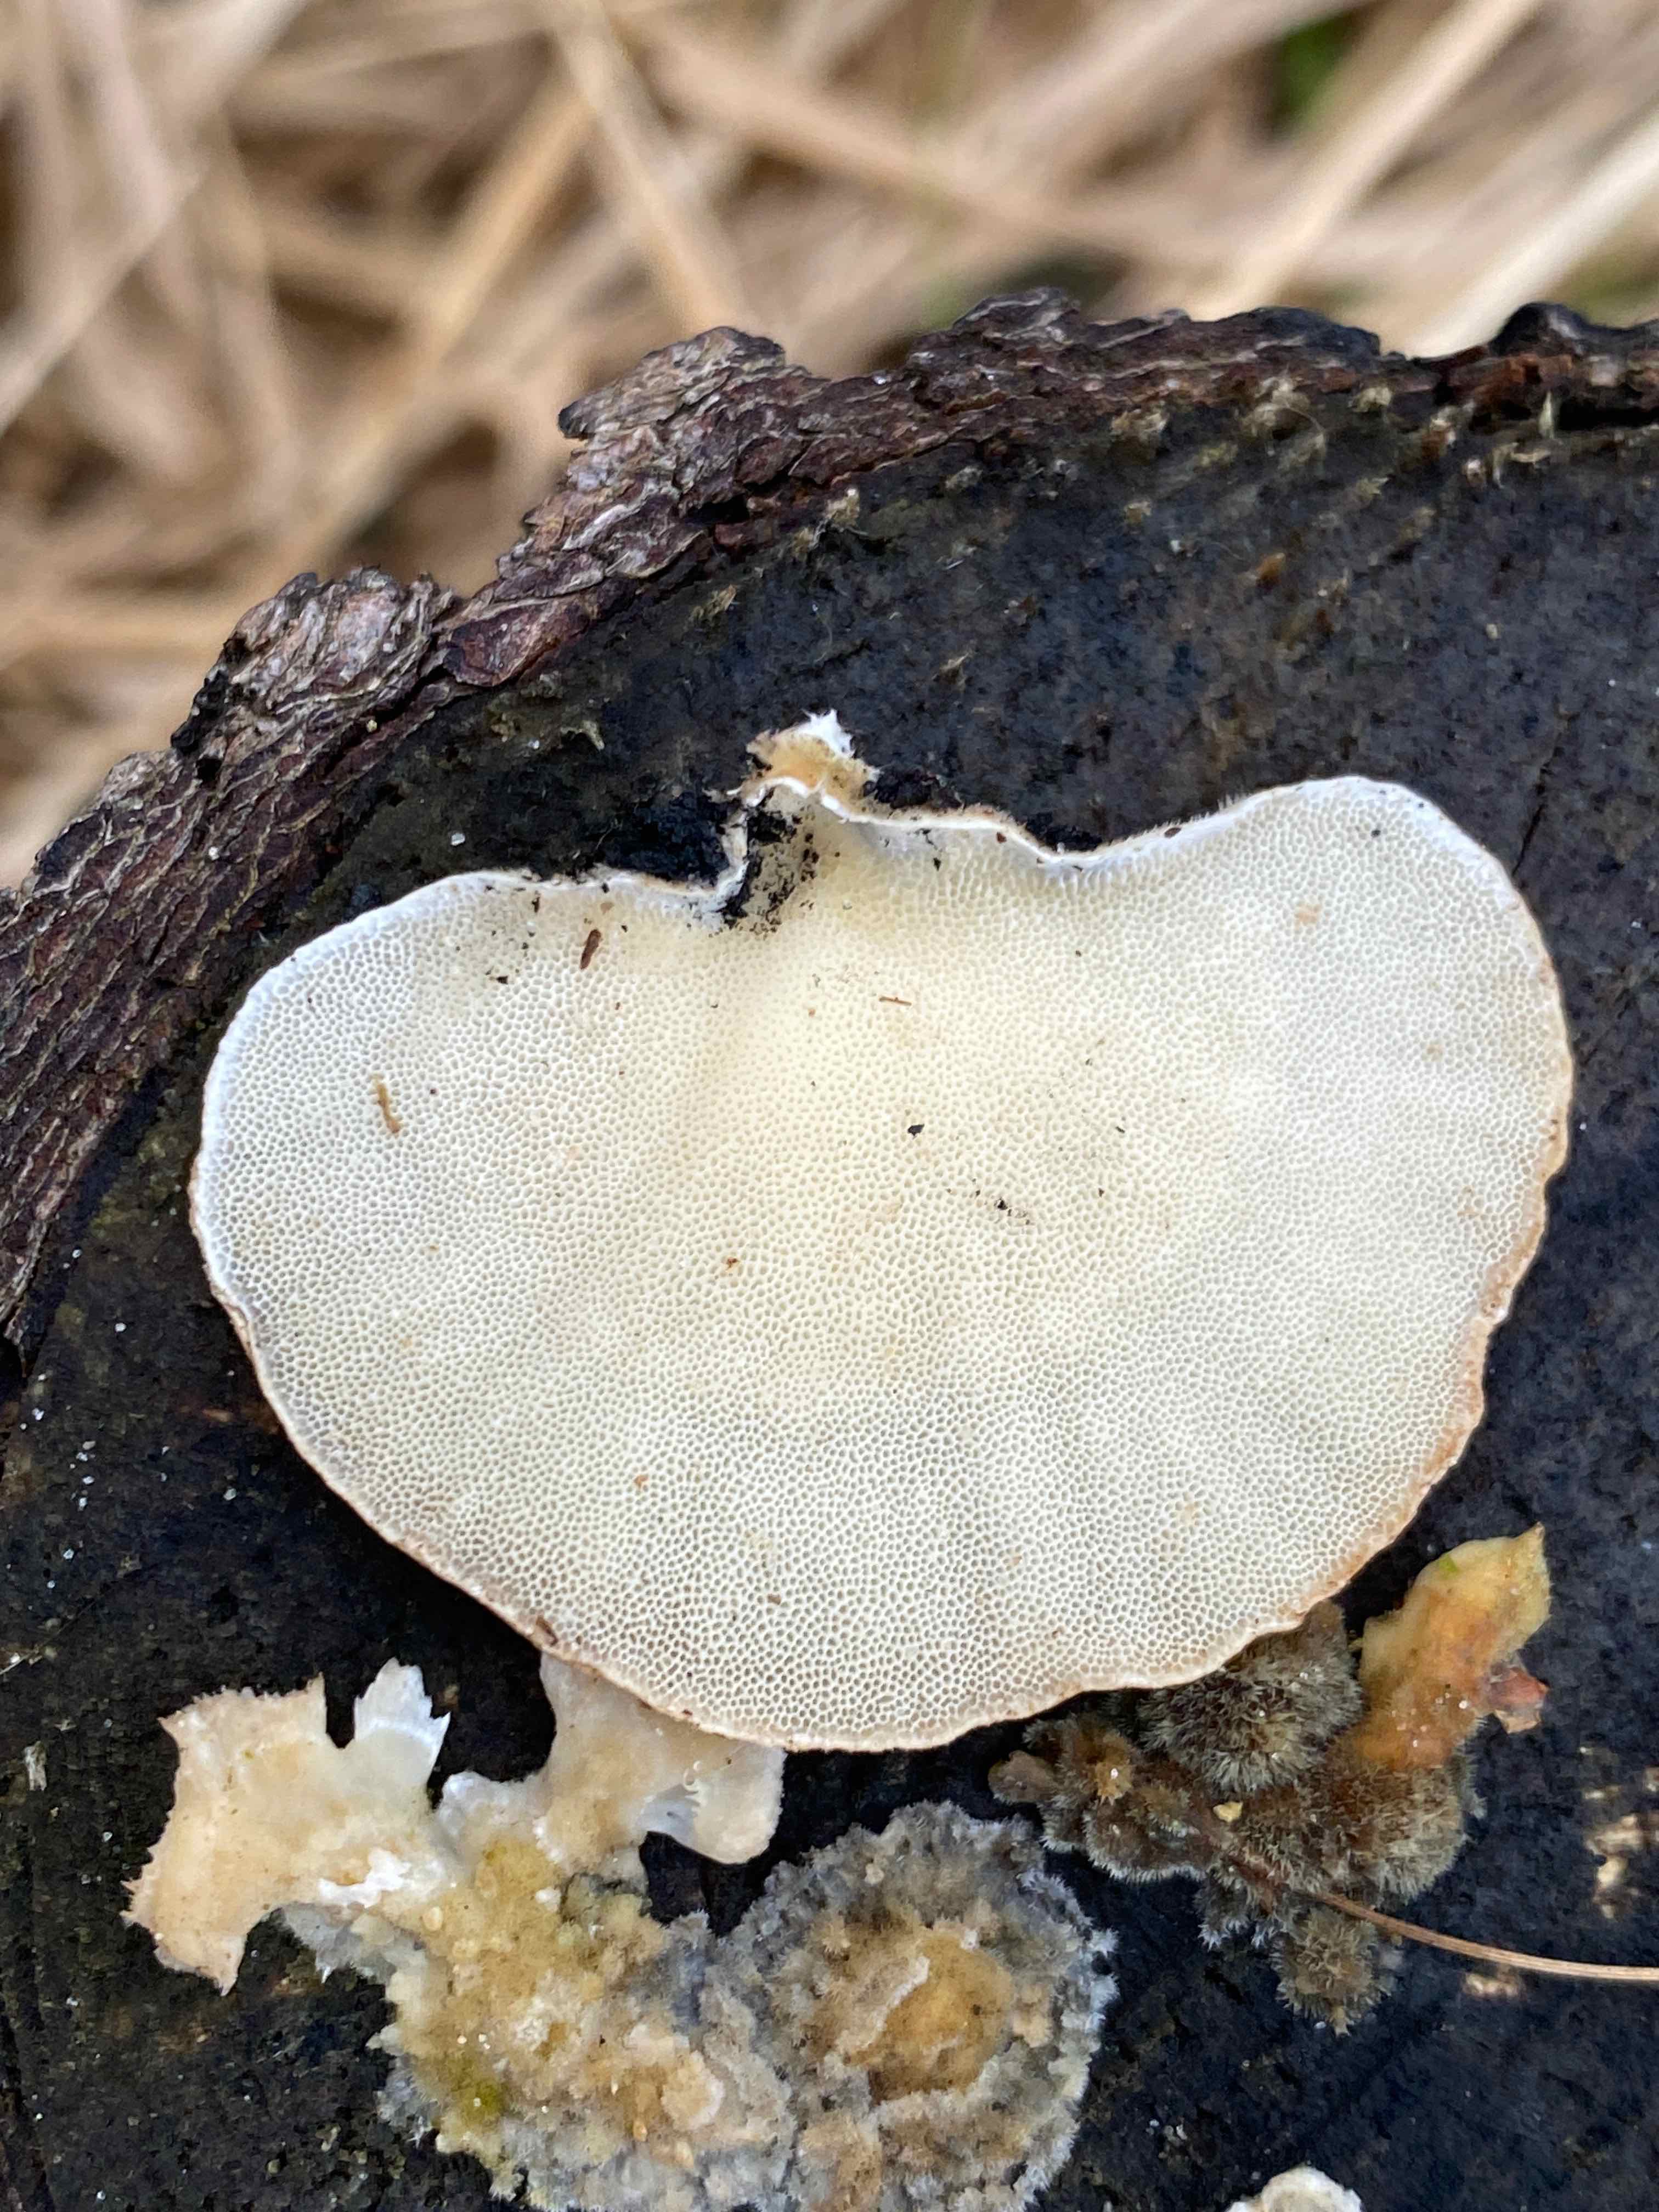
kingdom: Fungi
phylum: Basidiomycota
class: Agaricomycetes
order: Polyporales
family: Polyporaceae
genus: Trametes
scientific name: Trametes versicolor
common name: broget læderporesvamp
